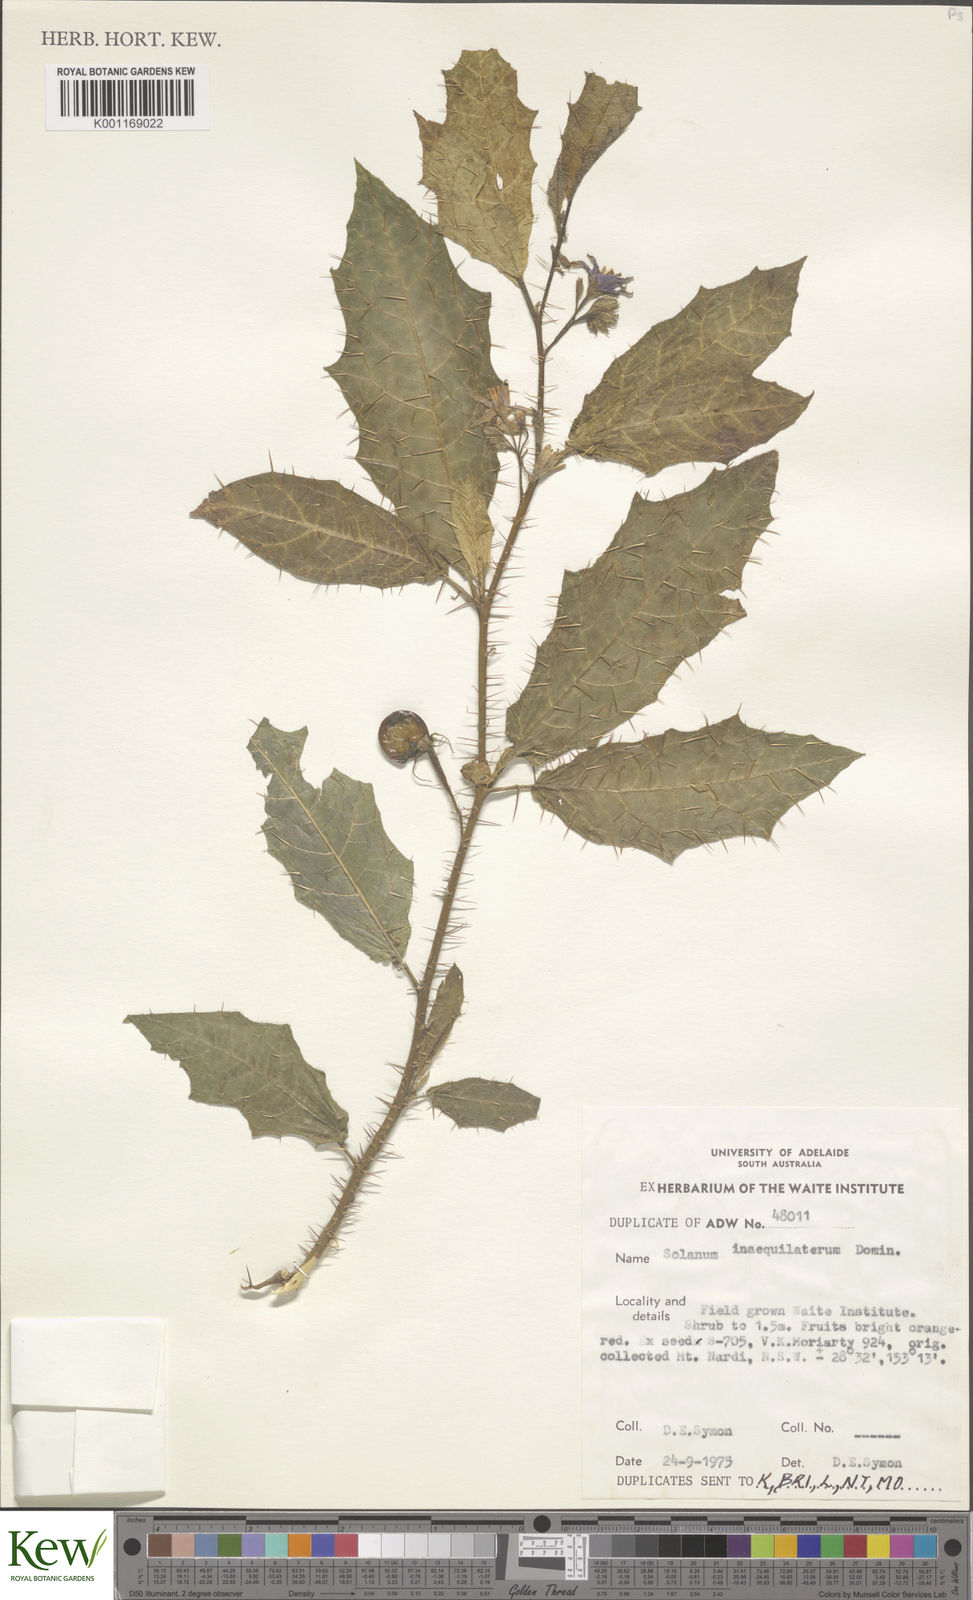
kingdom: Plantae
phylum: Tracheophyta
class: Magnoliopsida
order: Solanales
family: Solanaceae
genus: Solanum
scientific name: Solanum inaequilaterum
